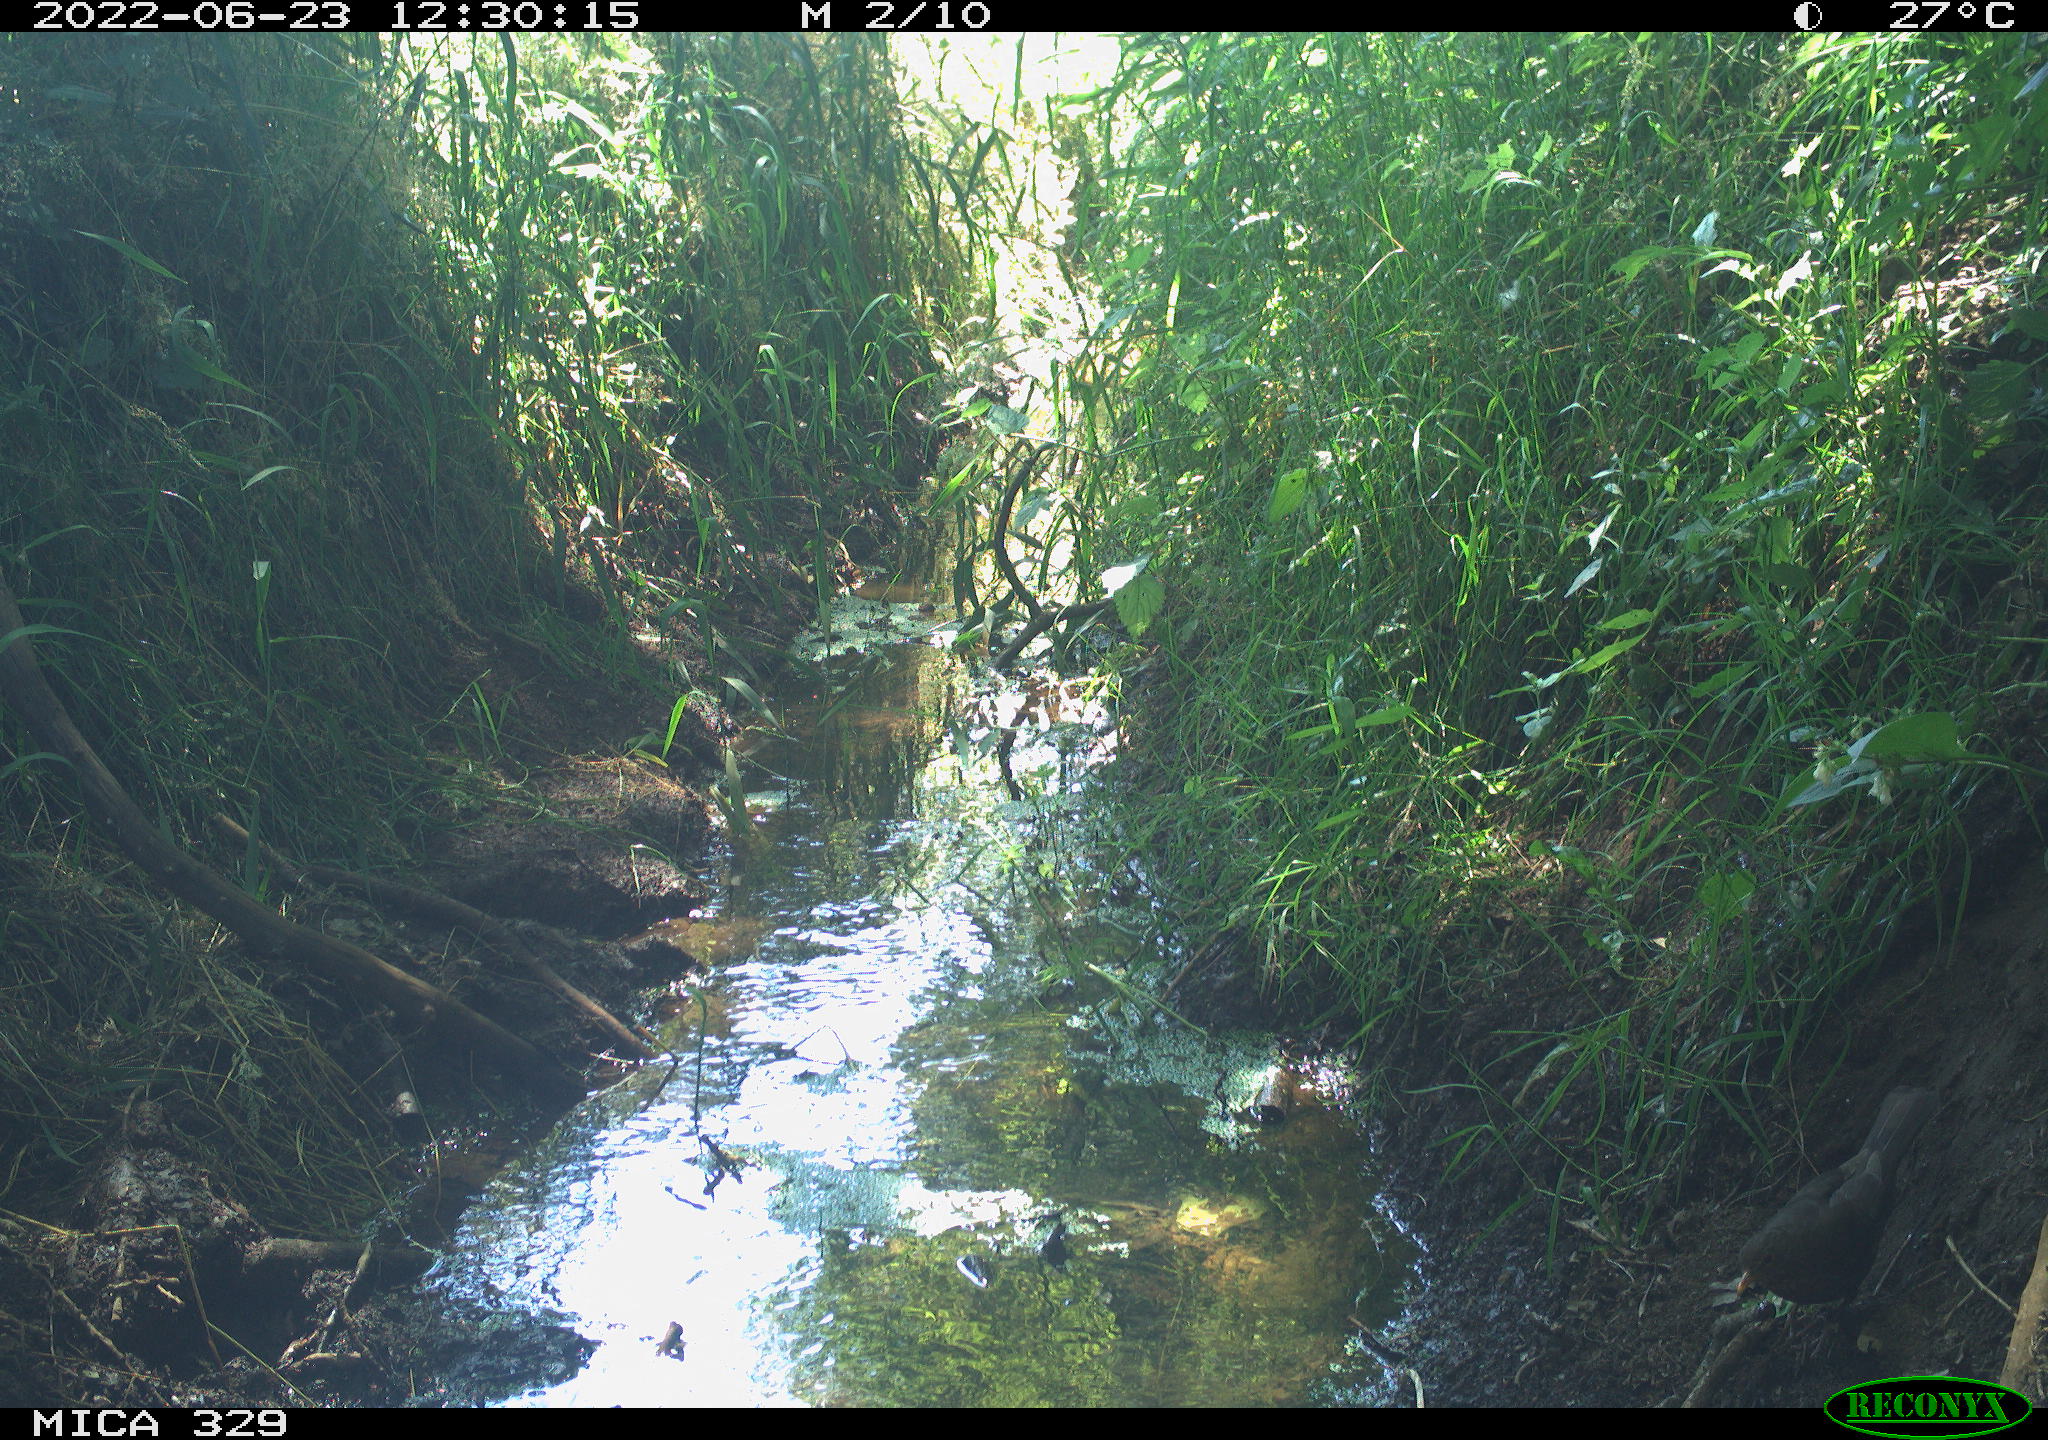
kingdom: Animalia
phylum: Chordata
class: Aves
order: Passeriformes
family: Turdidae
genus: Turdus
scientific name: Turdus merula
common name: Common blackbird
